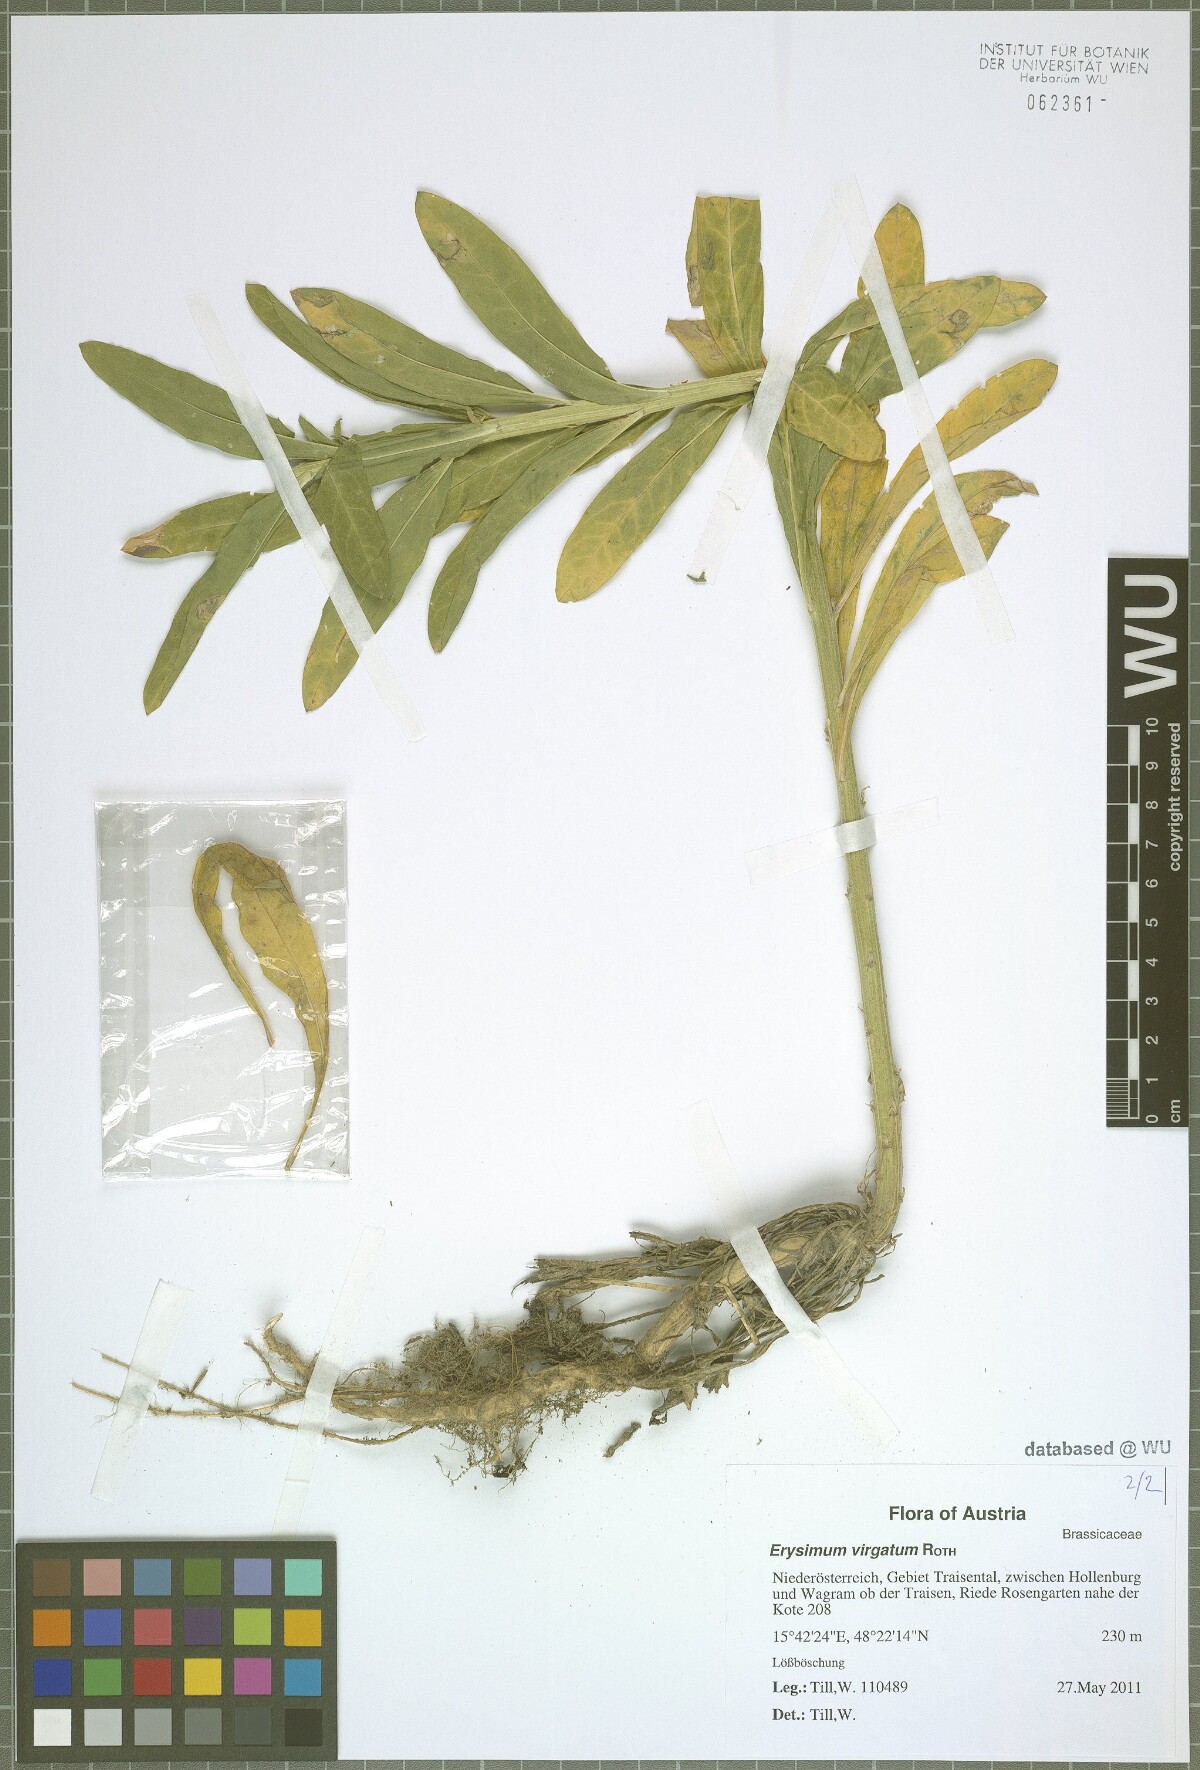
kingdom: Plantae
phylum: Tracheophyta
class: Magnoliopsida
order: Brassicales
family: Brassicaceae
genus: Erysimum
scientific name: Erysimum virgatum
